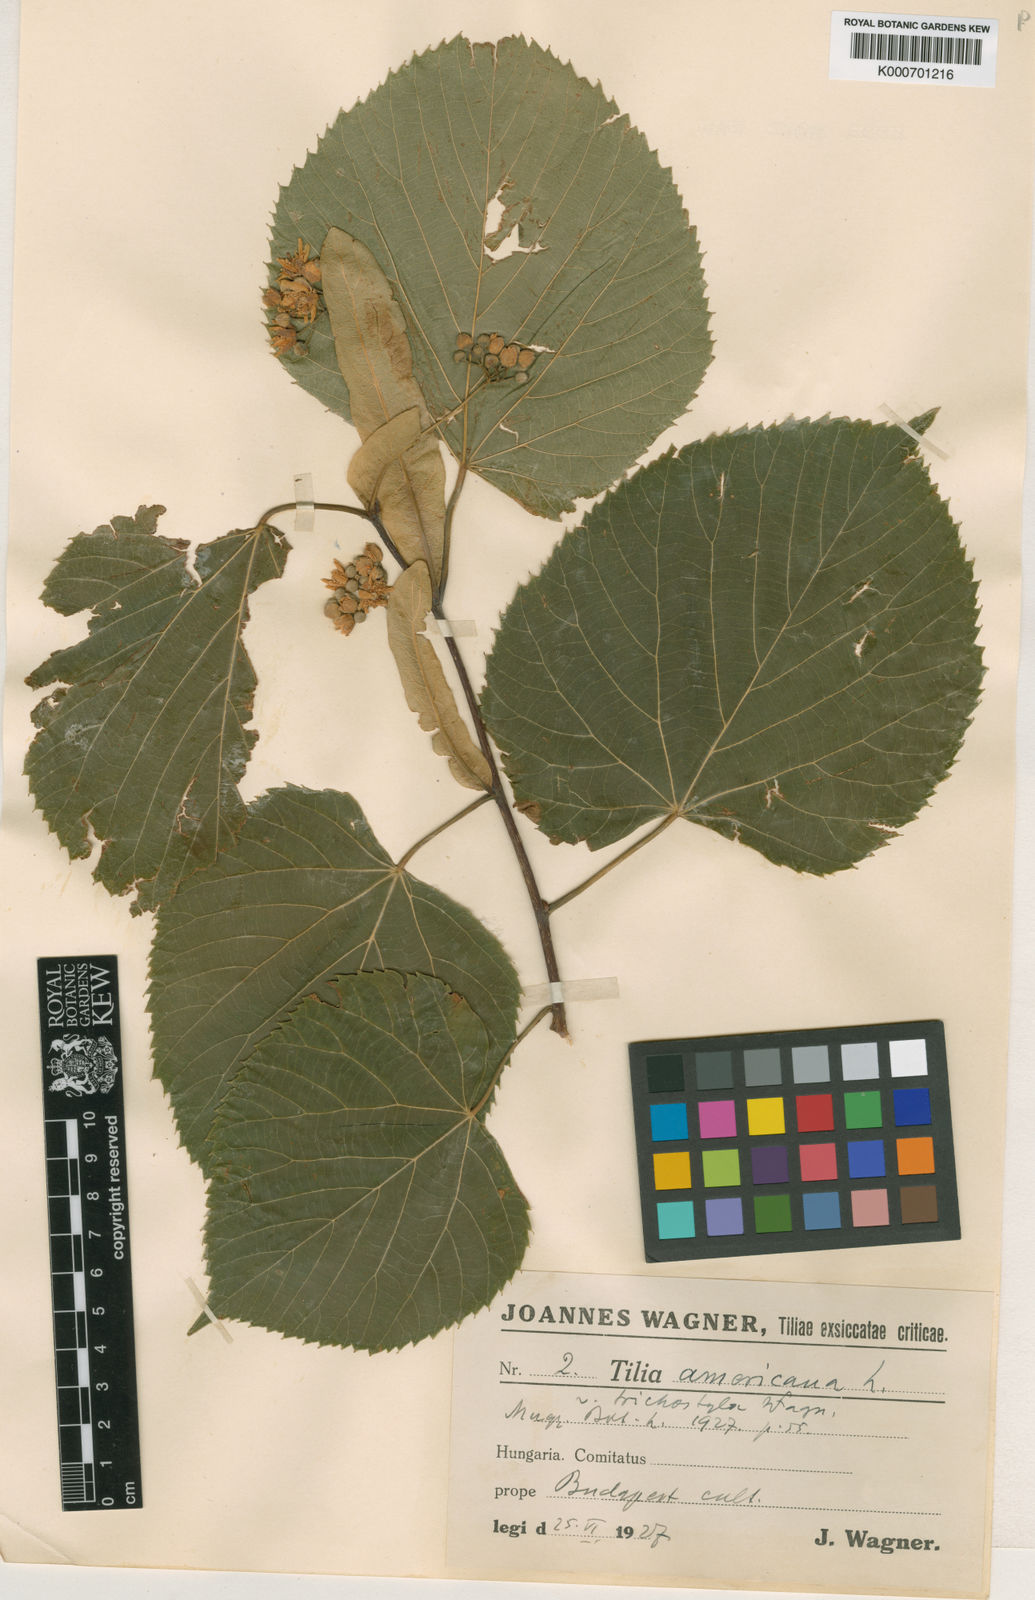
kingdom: Plantae
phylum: Tracheophyta
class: Magnoliopsida
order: Malvales
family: Malvaceae
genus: Tilia
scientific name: Tilia americana
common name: Basswood
